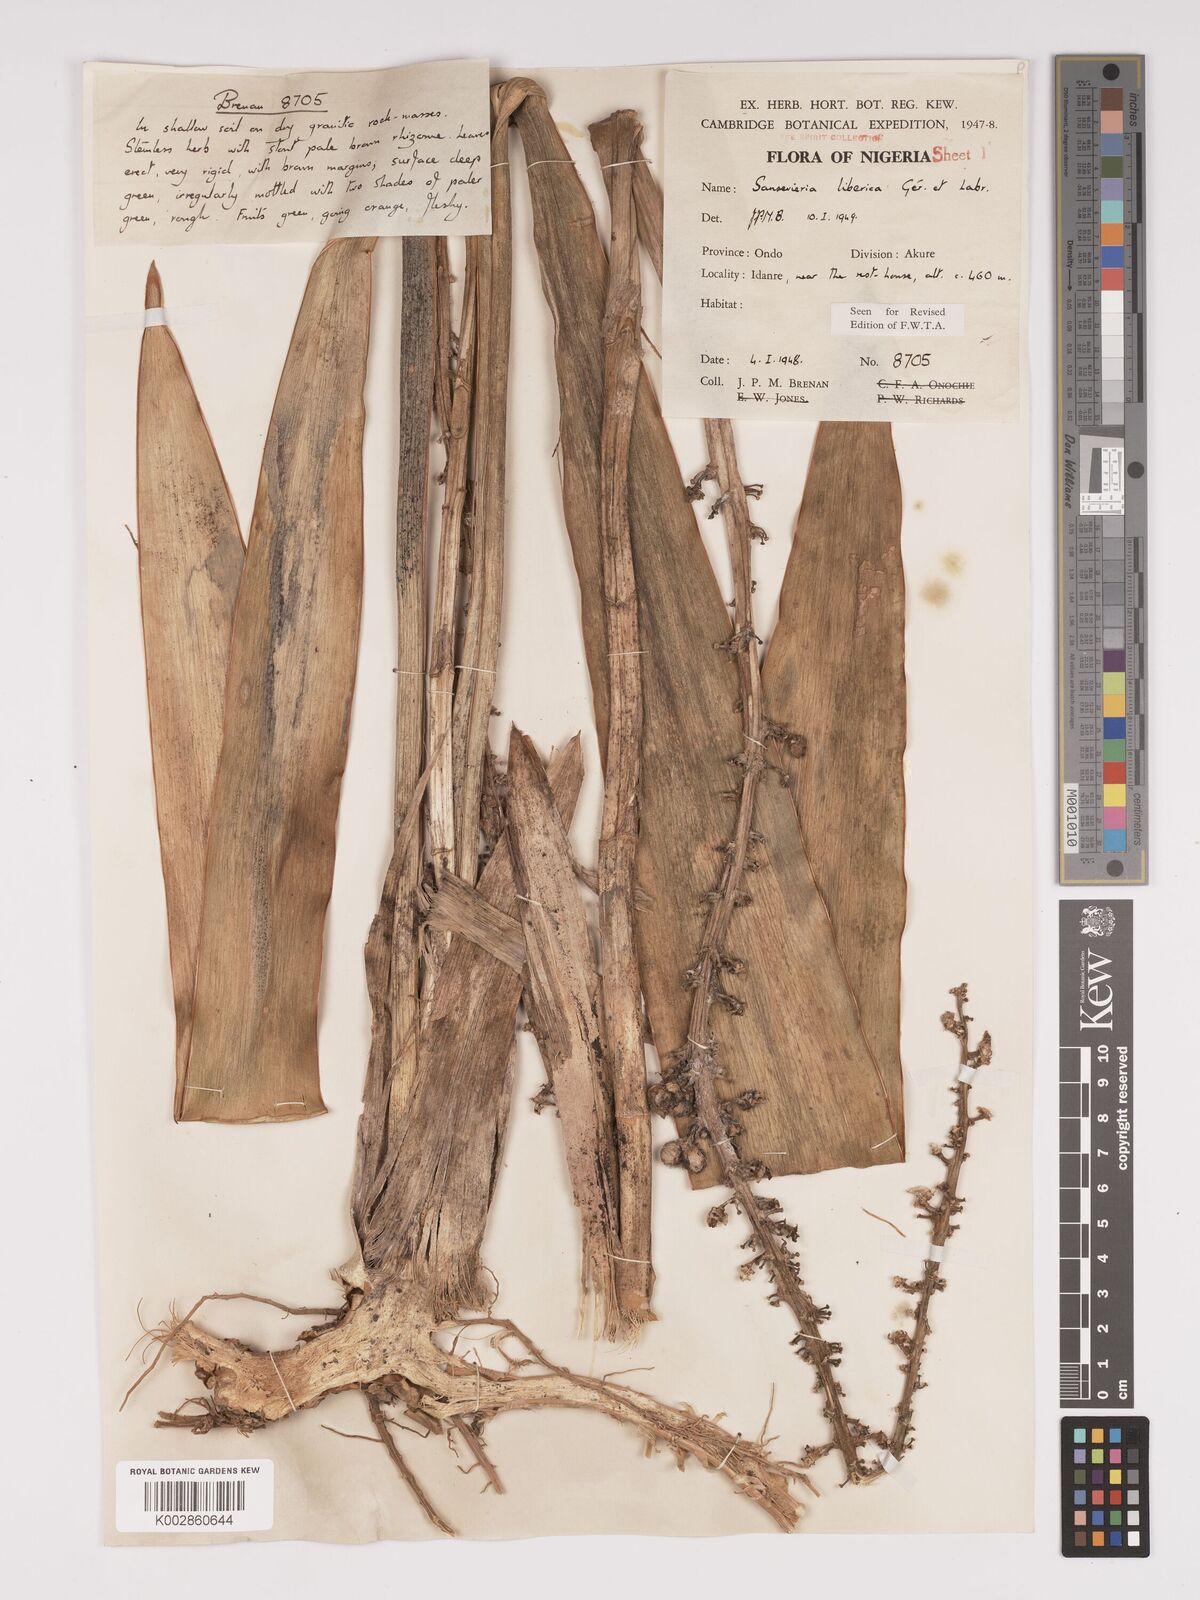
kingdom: Plantae
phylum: Tracheophyta
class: Liliopsida
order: Asparagales
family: Asparagaceae
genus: Dracaena
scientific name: Dracaena liberica
